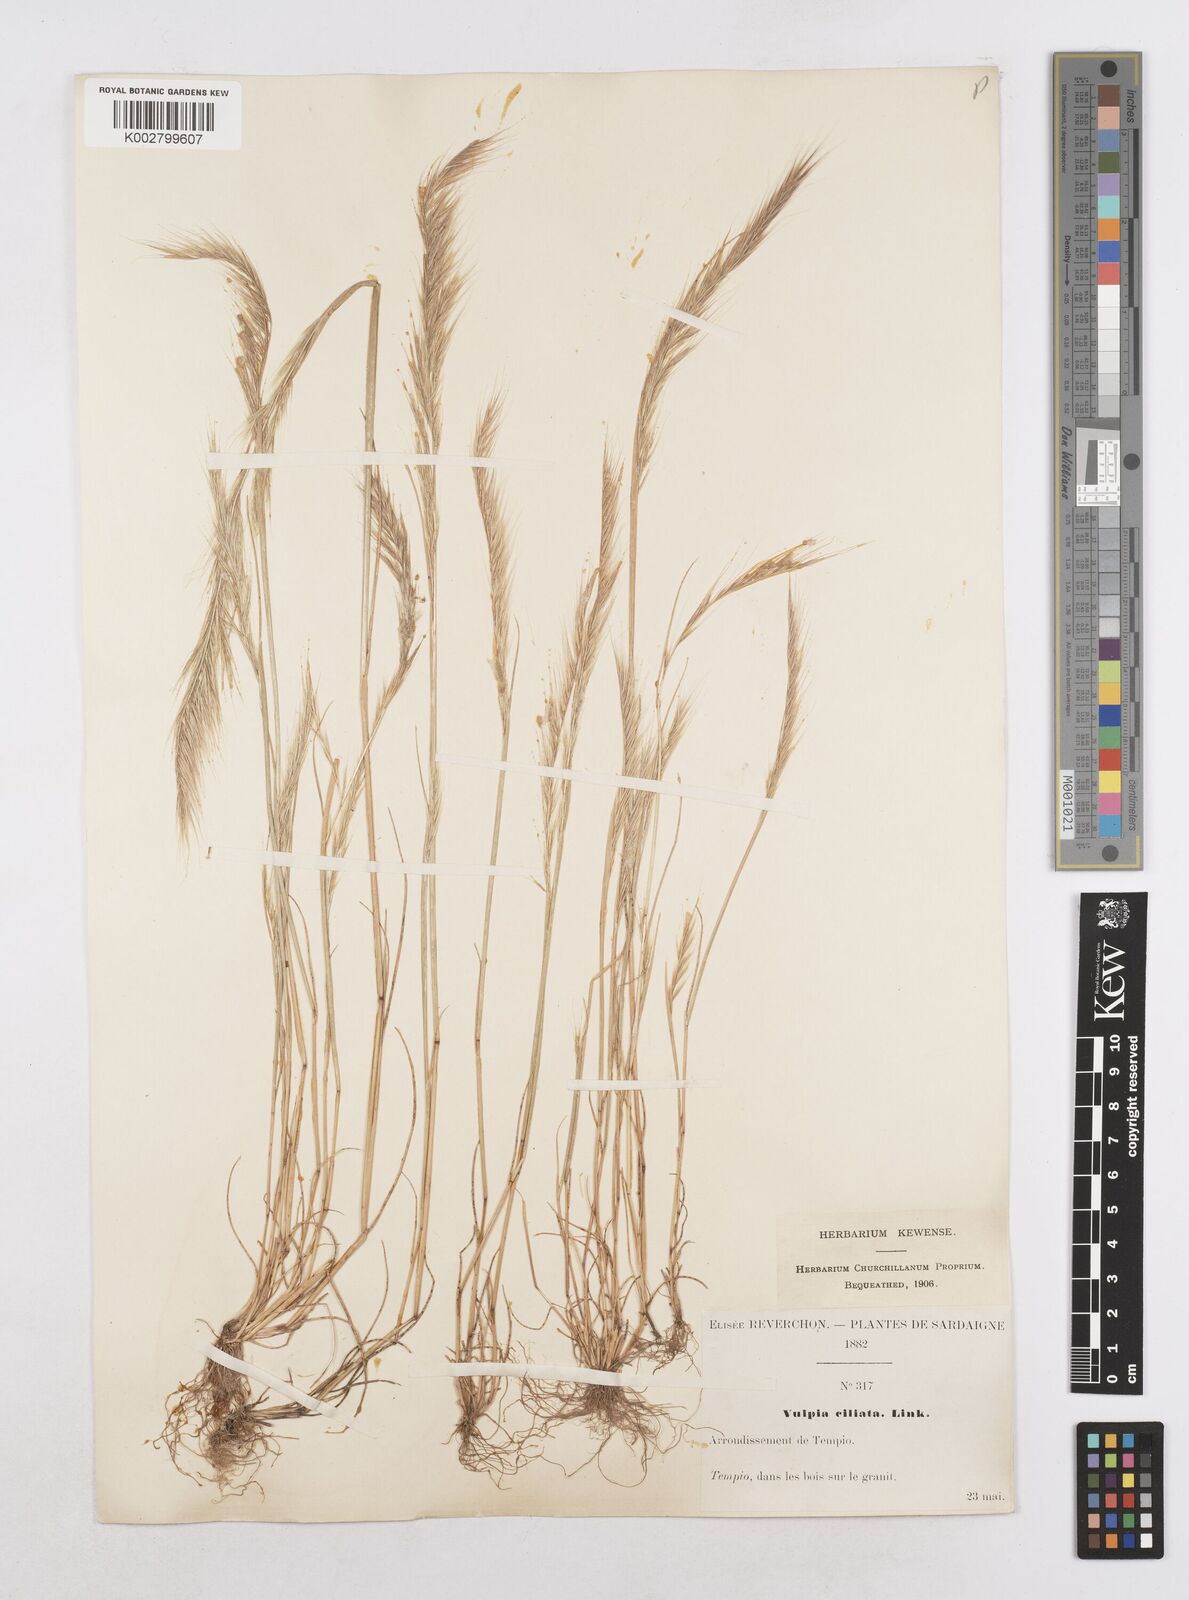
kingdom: Plantae
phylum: Tracheophyta
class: Liliopsida
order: Poales
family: Poaceae
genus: Festuca
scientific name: Festuca
